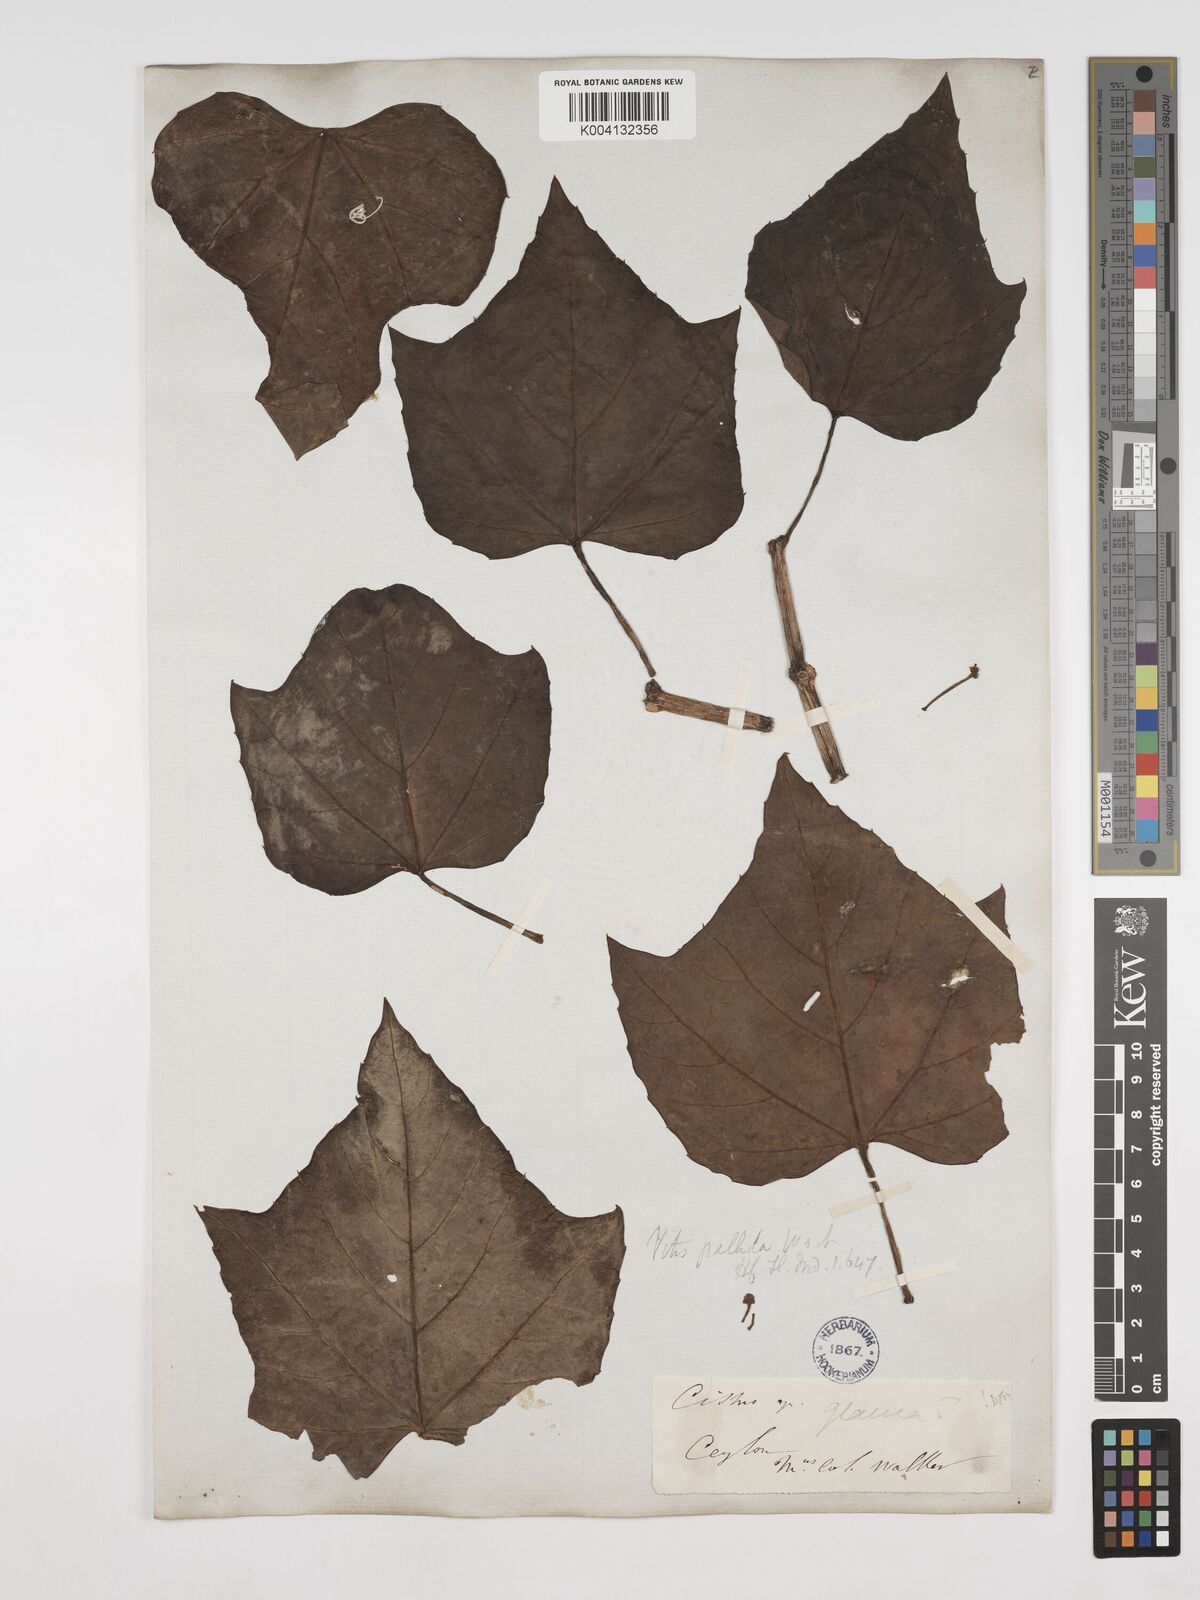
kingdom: Plantae
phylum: Tracheophyta
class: Magnoliopsida
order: Vitales
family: Vitaceae
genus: Cissus
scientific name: Cissus heyneana
